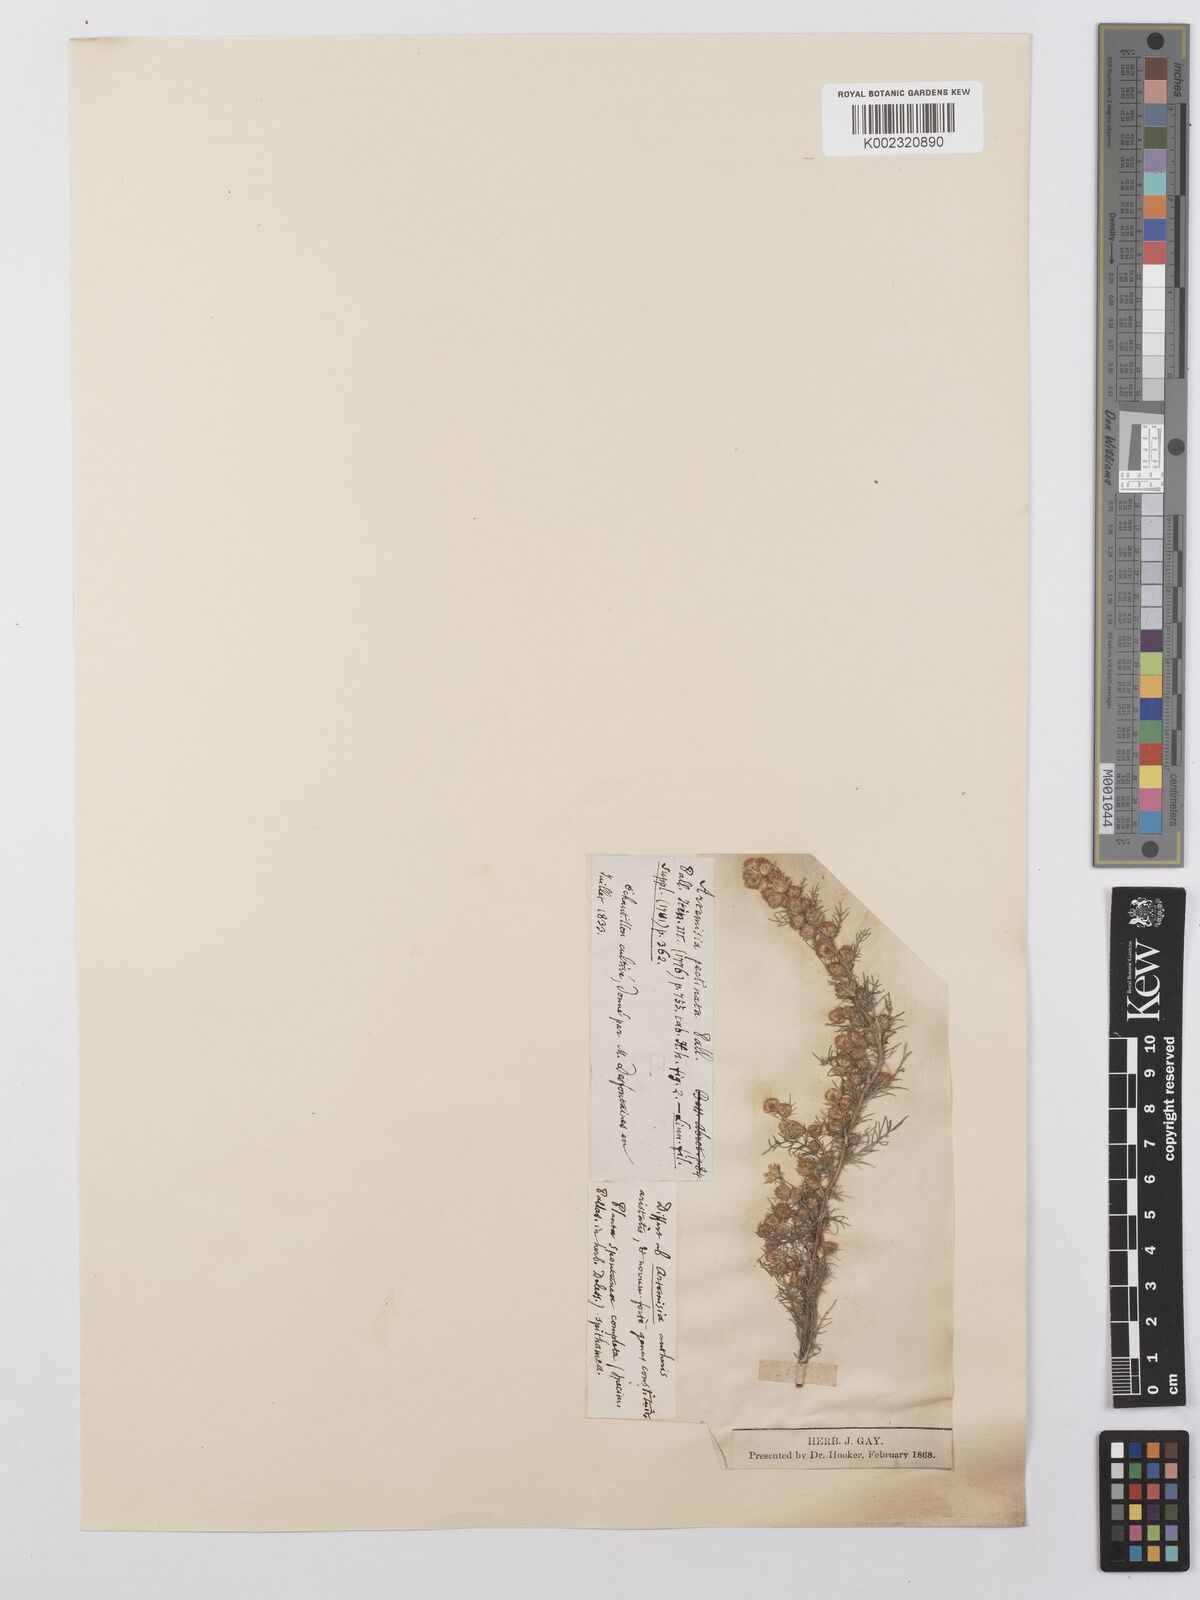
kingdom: Plantae
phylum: Tracheophyta
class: Magnoliopsida
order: Asterales
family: Asteraceae
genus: Neopallasia
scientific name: Neopallasia pectinata
